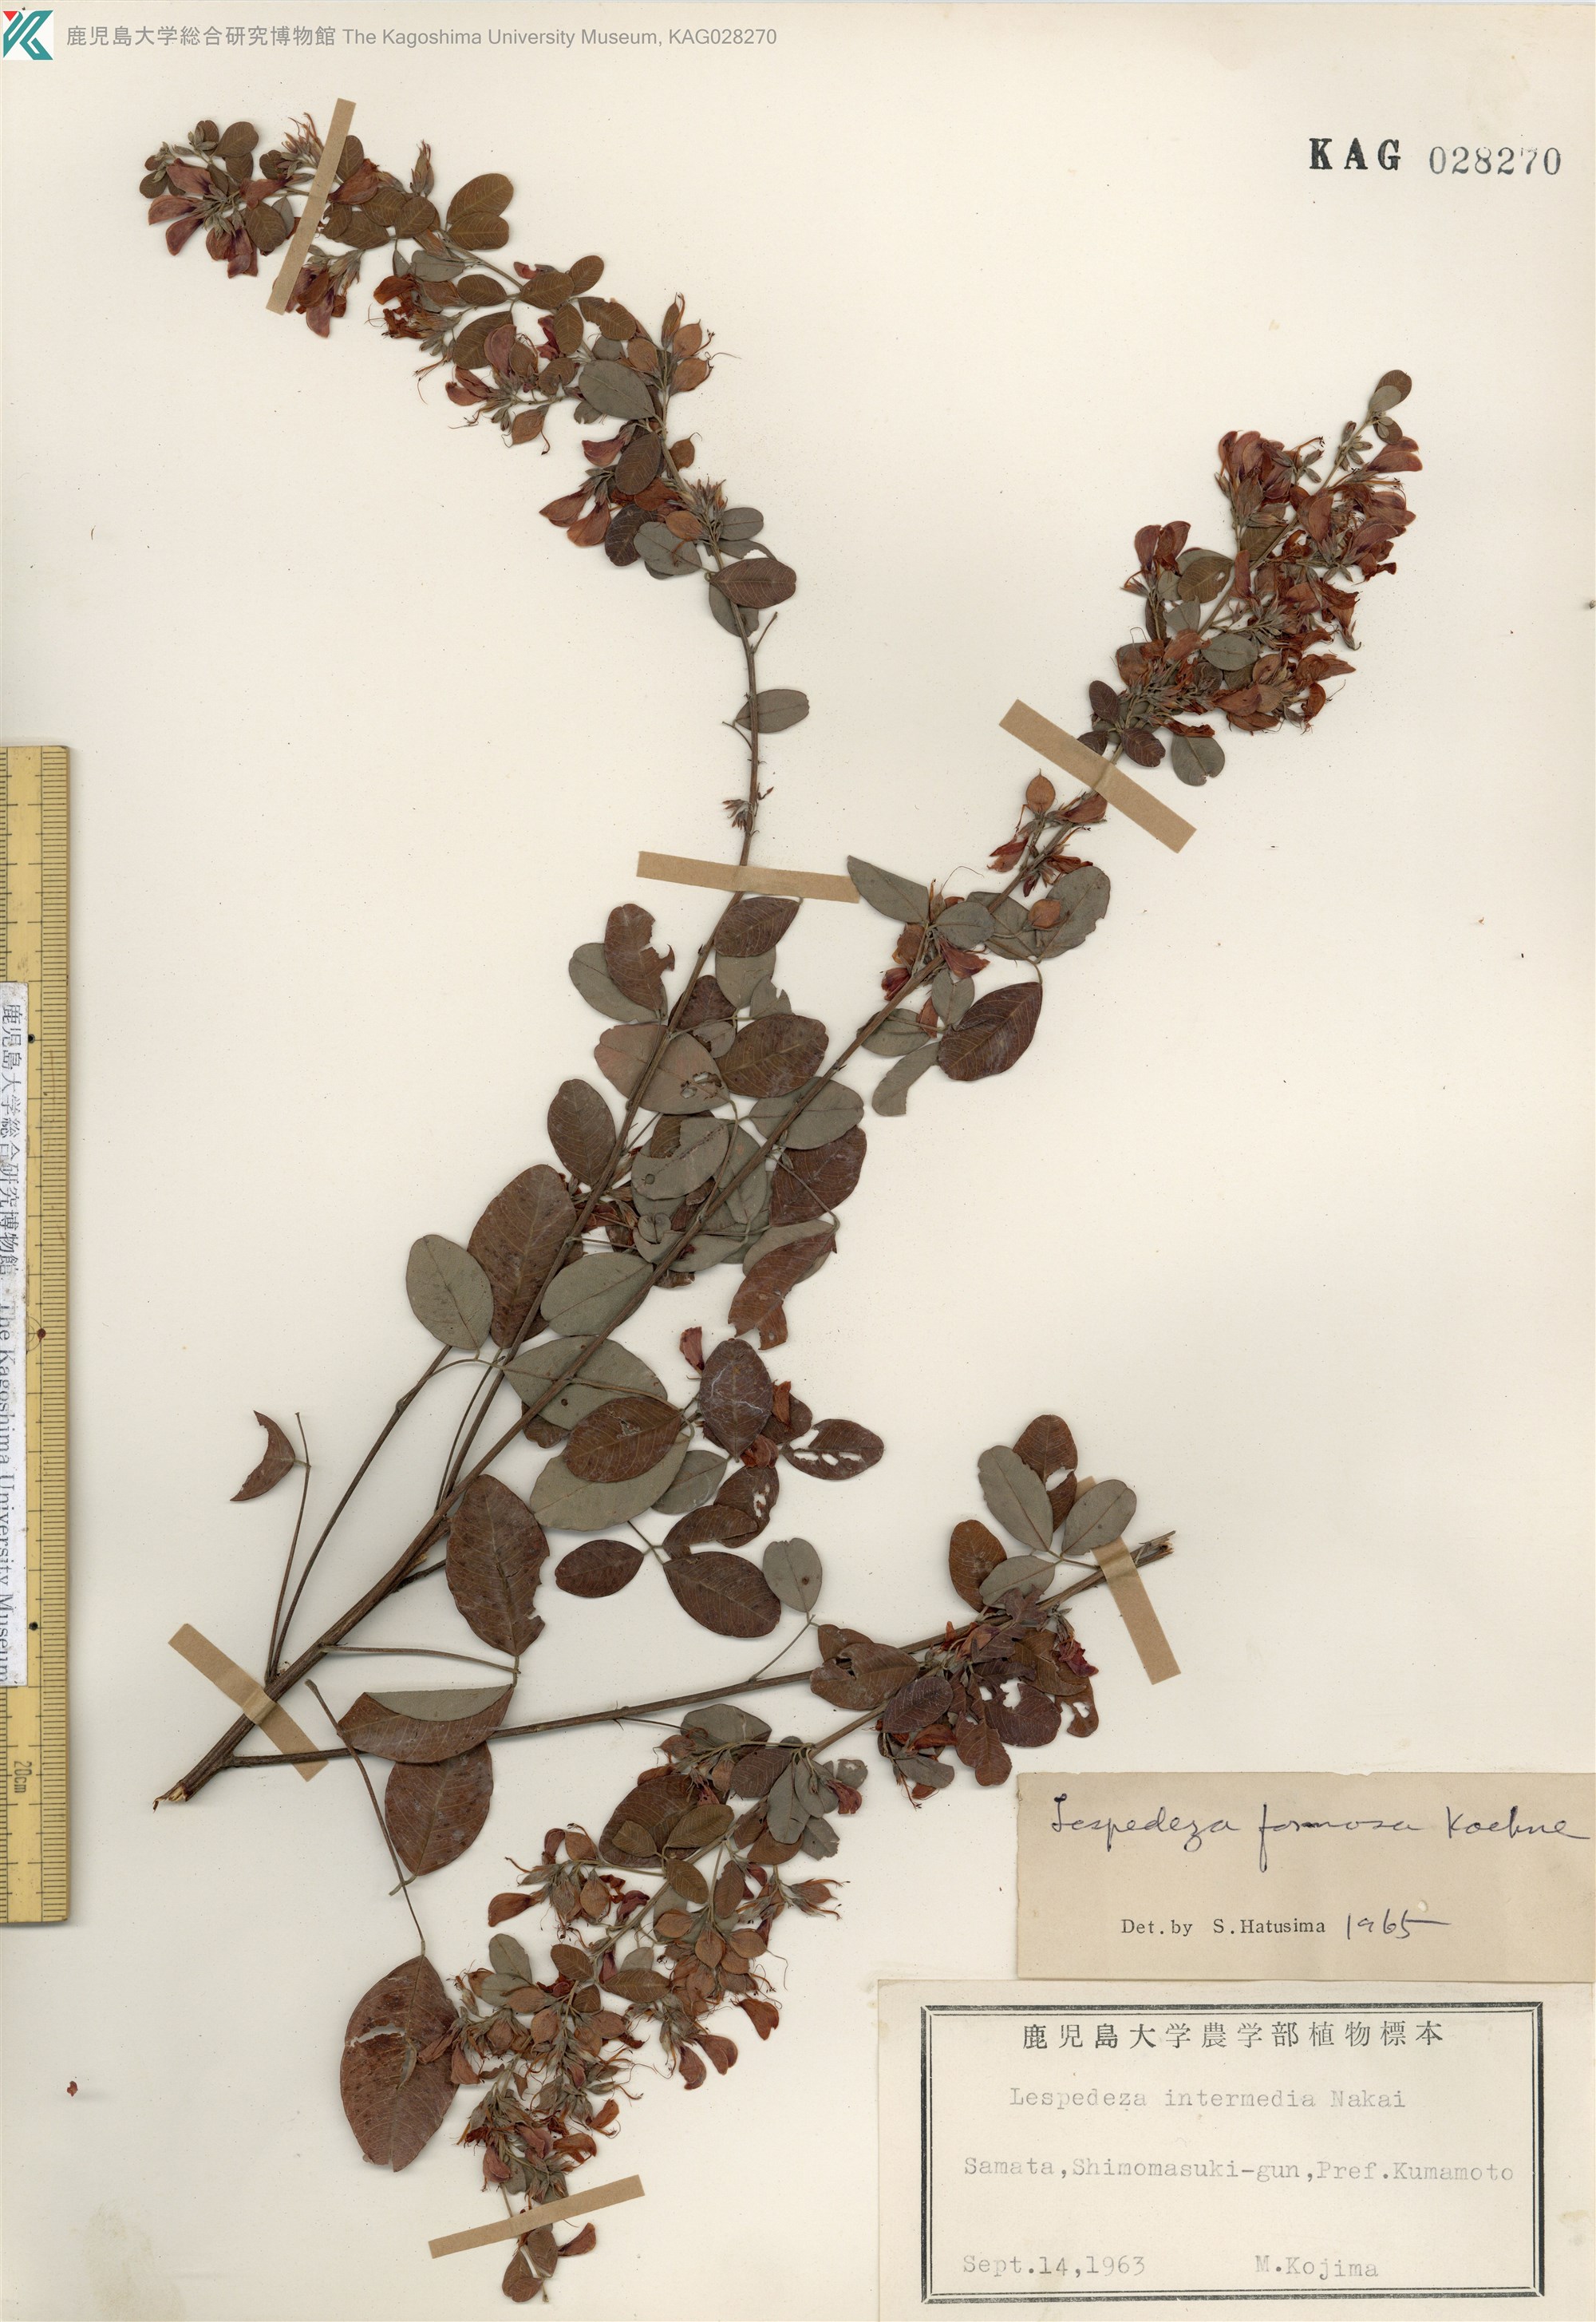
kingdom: Plantae
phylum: Tracheophyta
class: Magnoliopsida
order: Fabales
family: Fabaceae
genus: Lespedeza
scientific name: Lespedeza thunbergii
